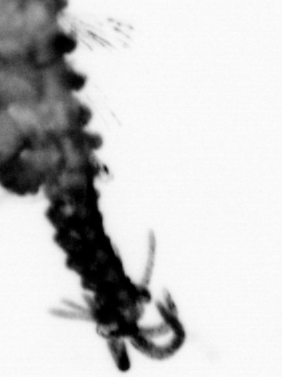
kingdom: Animalia
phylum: Annelida
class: Polychaeta
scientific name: Polychaeta
